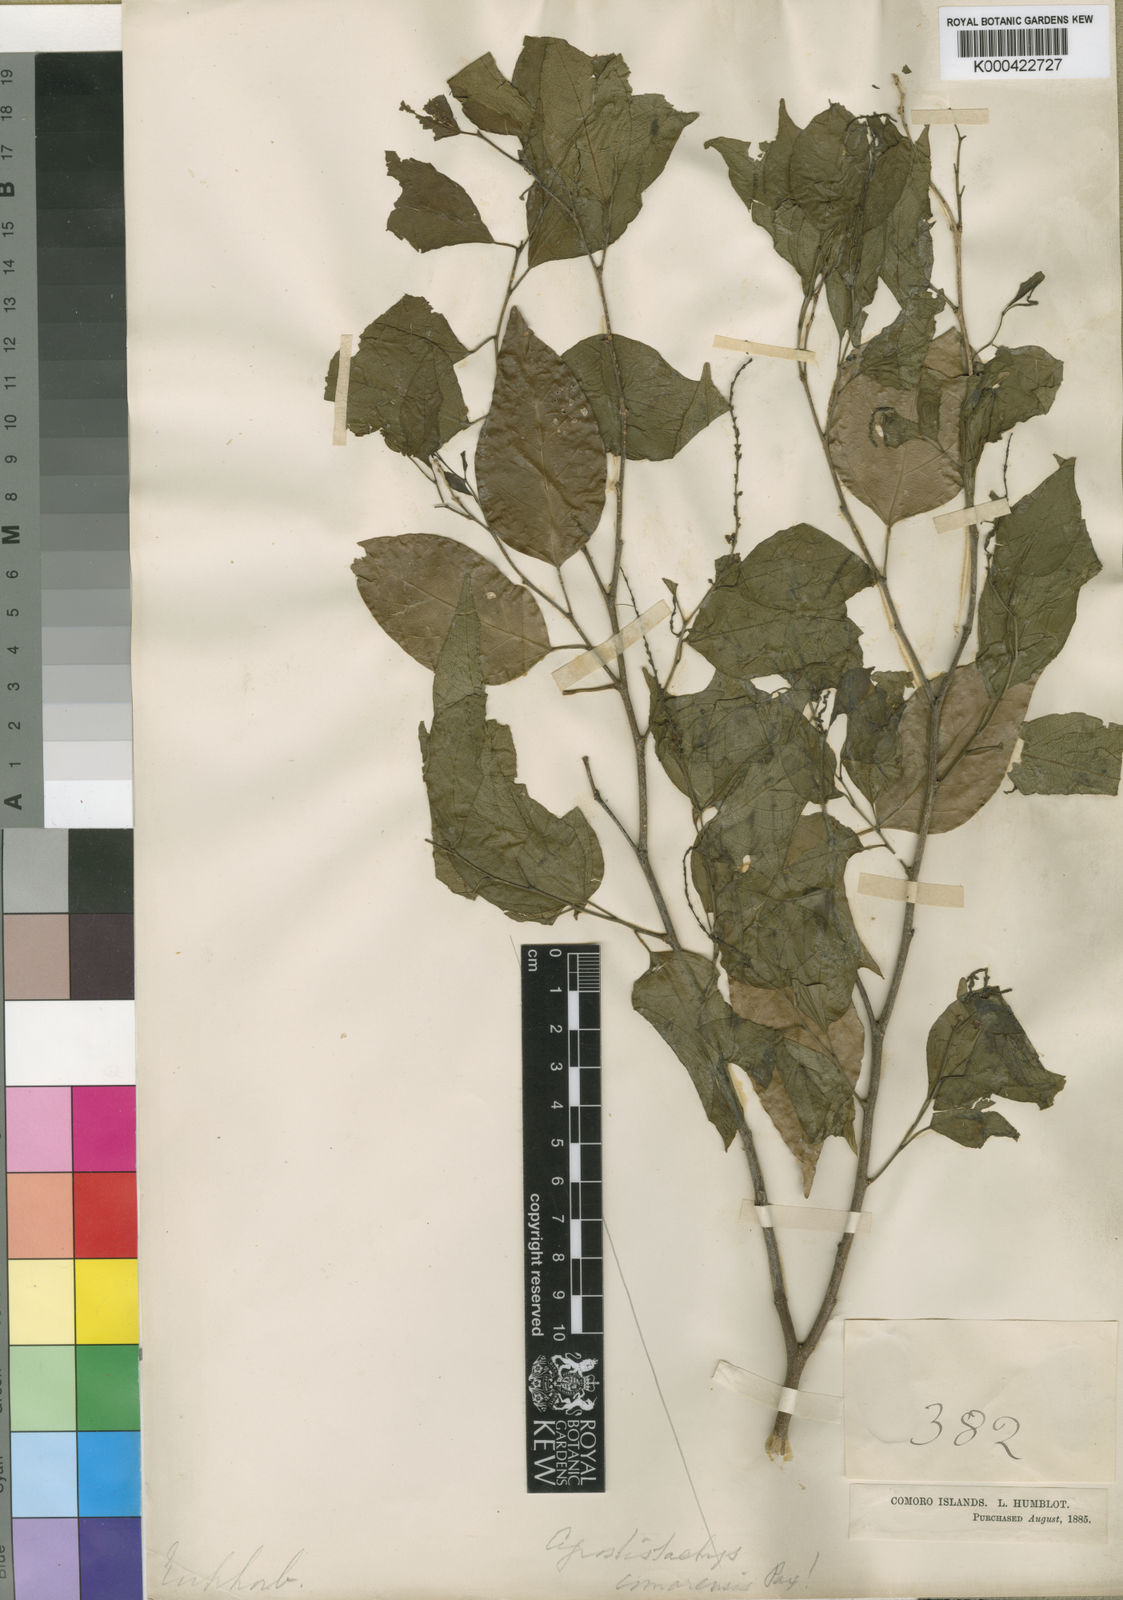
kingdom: Plantae
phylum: Tracheophyta
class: Magnoliopsida
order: Malpighiales
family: Euphorbiaceae
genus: Tannodia
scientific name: Tannodia cordifolia
